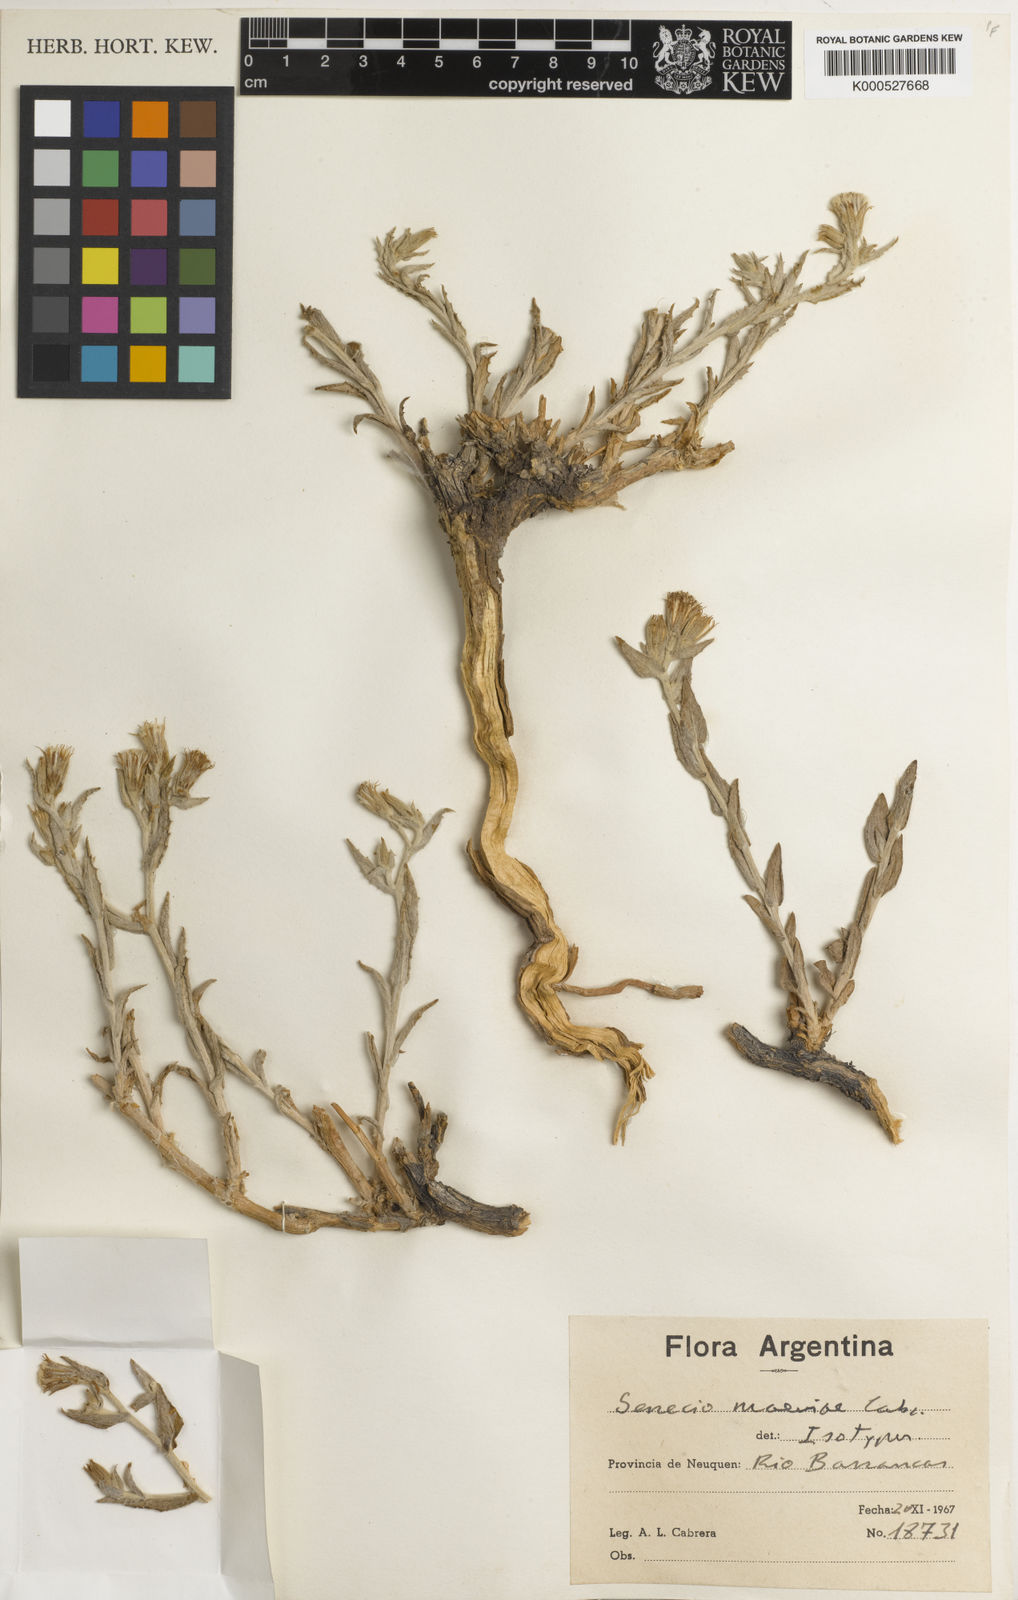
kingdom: Plantae
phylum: Tracheophyta
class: Magnoliopsida
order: Asterales
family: Asteraceae
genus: Senecio
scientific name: Senecio maeviae
